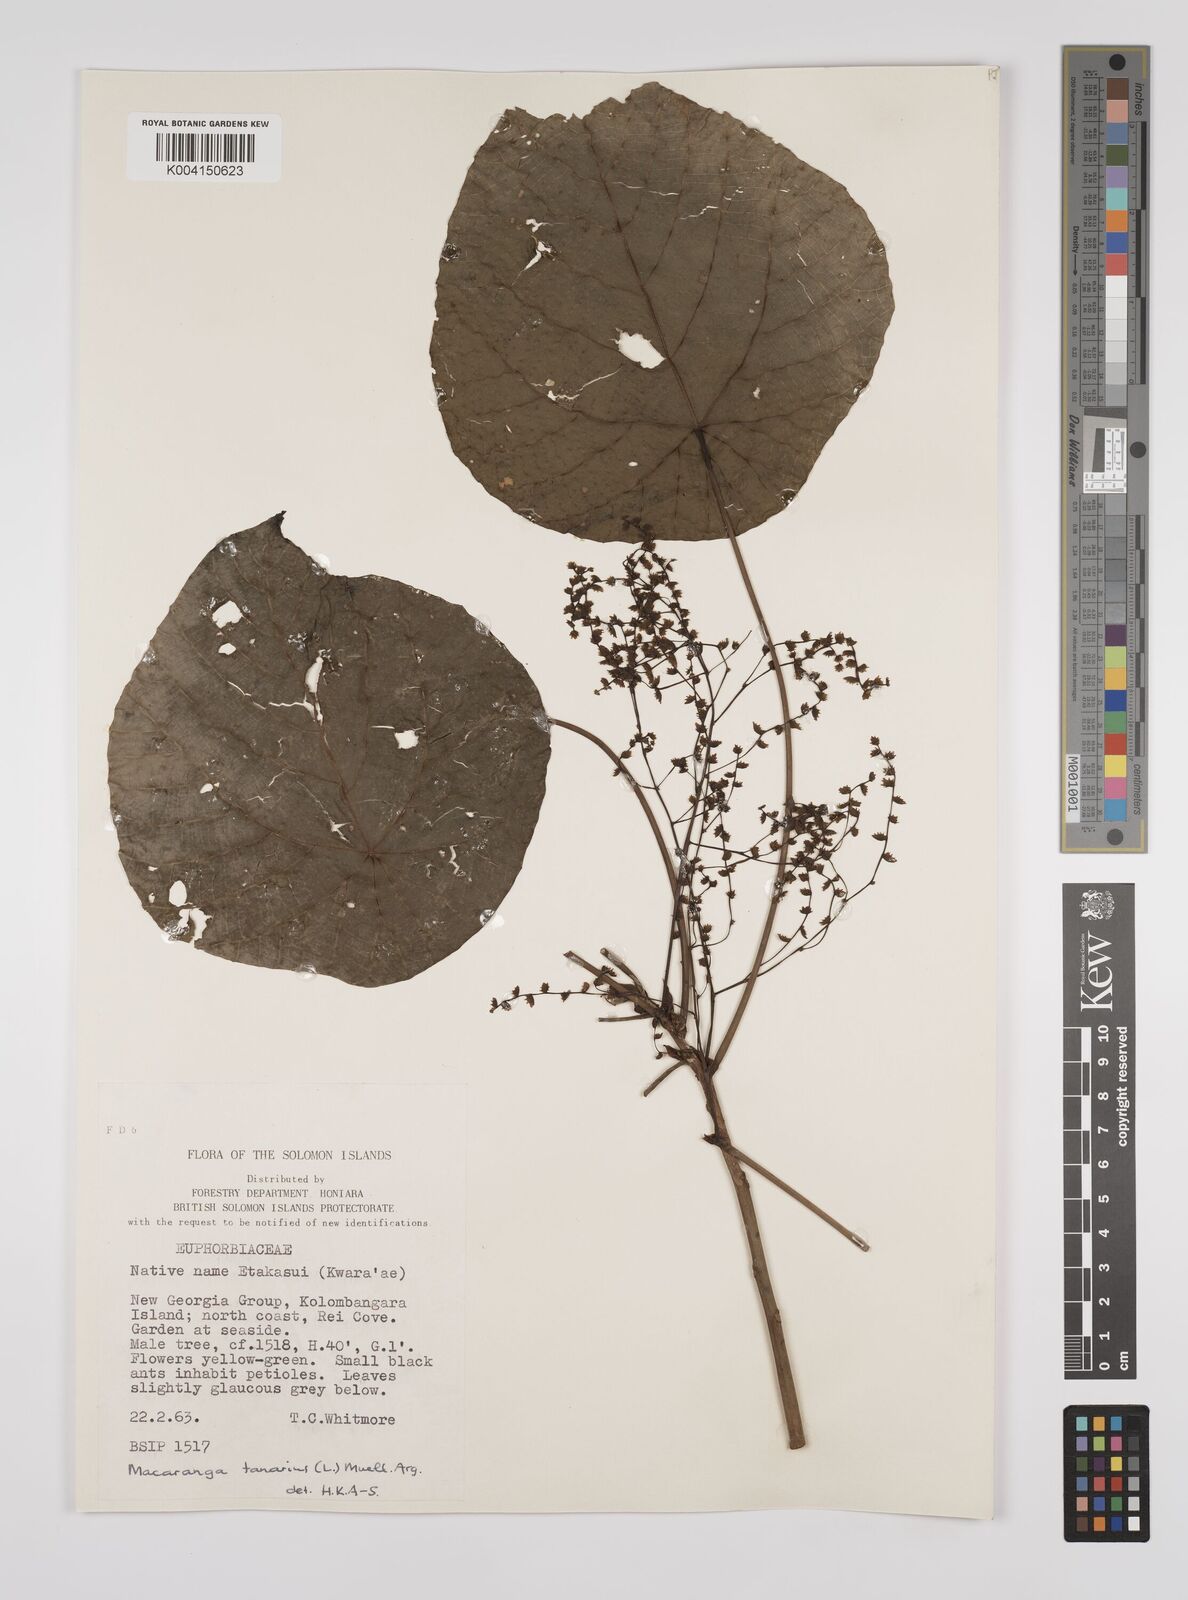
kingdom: Plantae
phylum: Tracheophyta
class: Magnoliopsida
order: Malpighiales
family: Euphorbiaceae
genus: Macaranga
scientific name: Macaranga tanarius
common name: Parasol leaf tree
